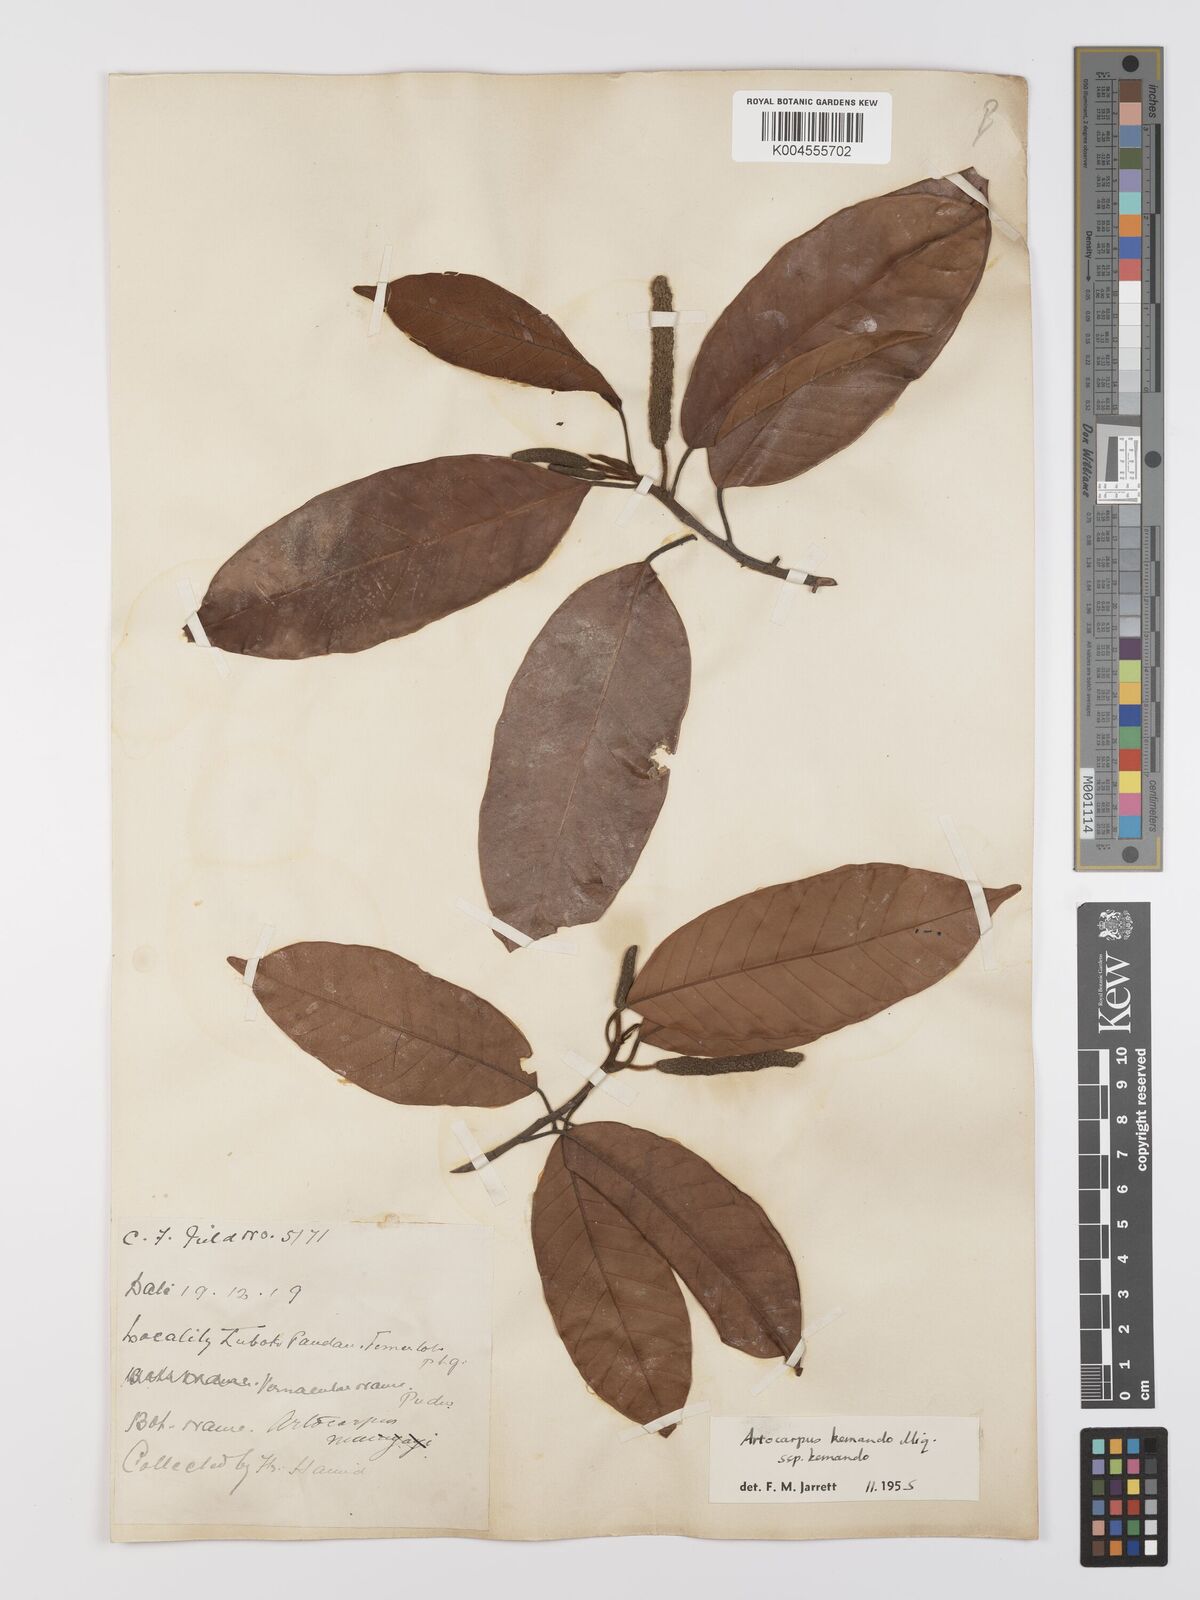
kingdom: Plantae
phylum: Tracheophyta
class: Magnoliopsida
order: Rosales
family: Moraceae
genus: Artocarpus
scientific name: Artocarpus kemando
